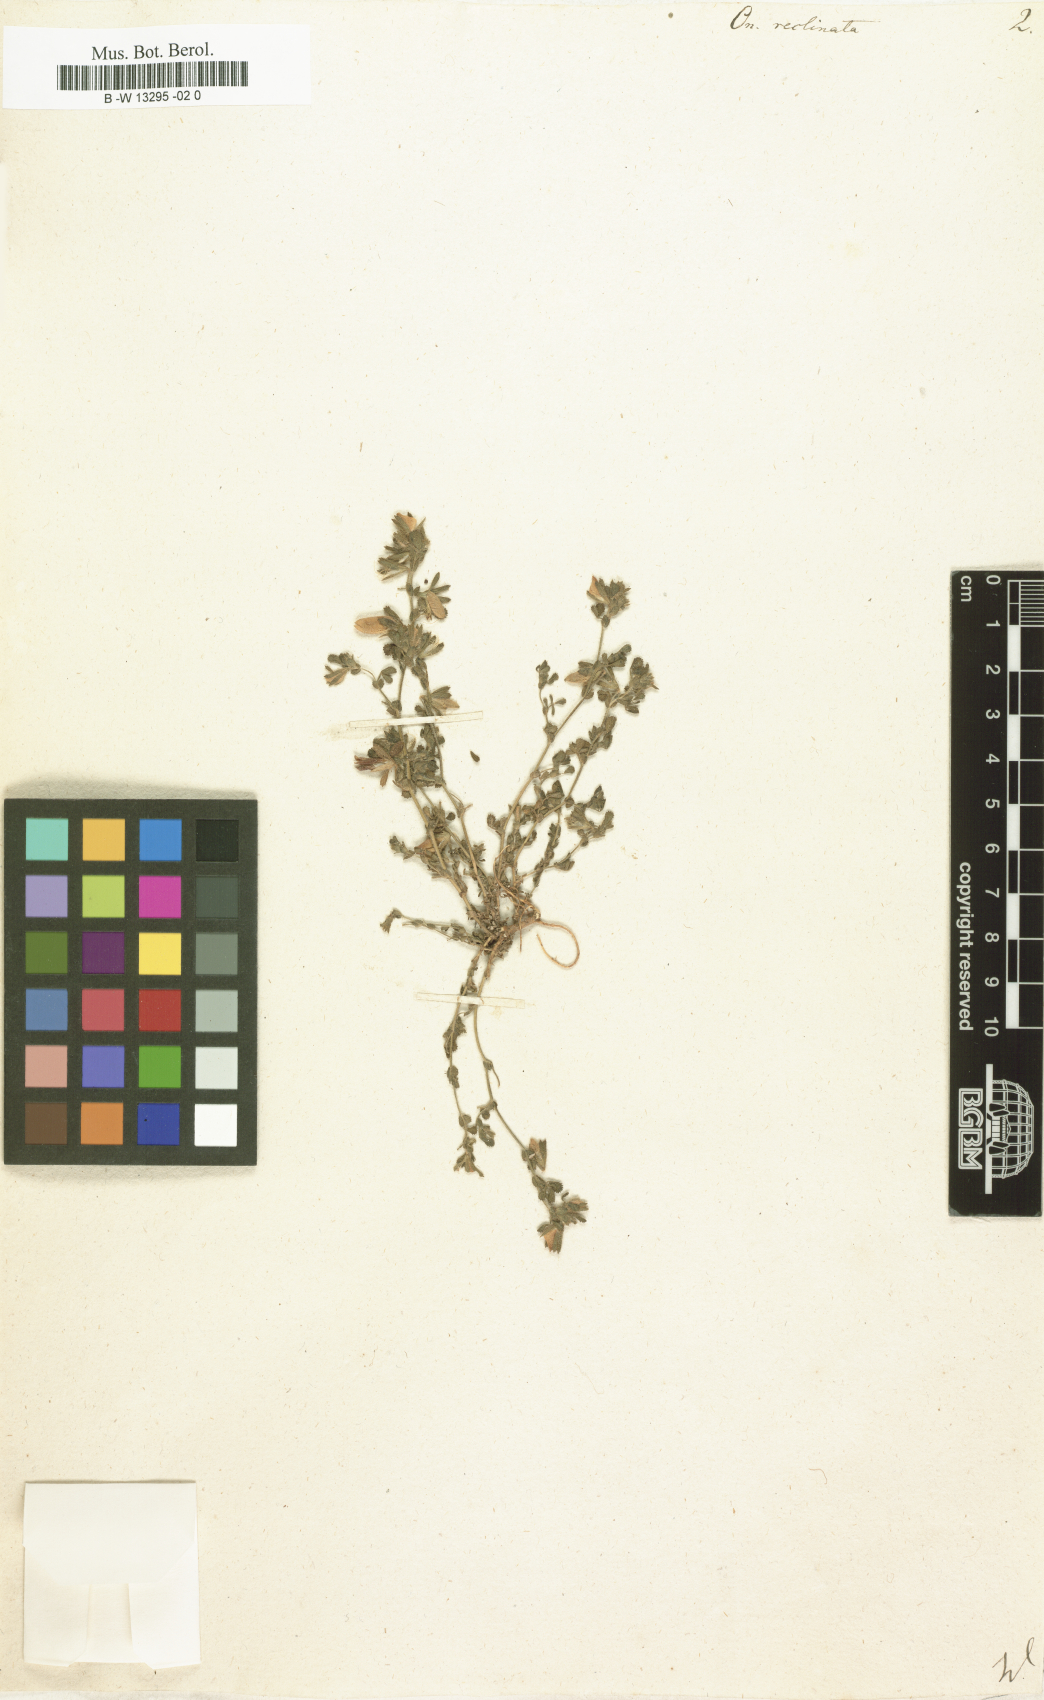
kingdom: Plantae
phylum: Tracheophyta
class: Magnoliopsida
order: Fabales
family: Fabaceae
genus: Ononis
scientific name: Ononis reclinata
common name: Small restharrow
